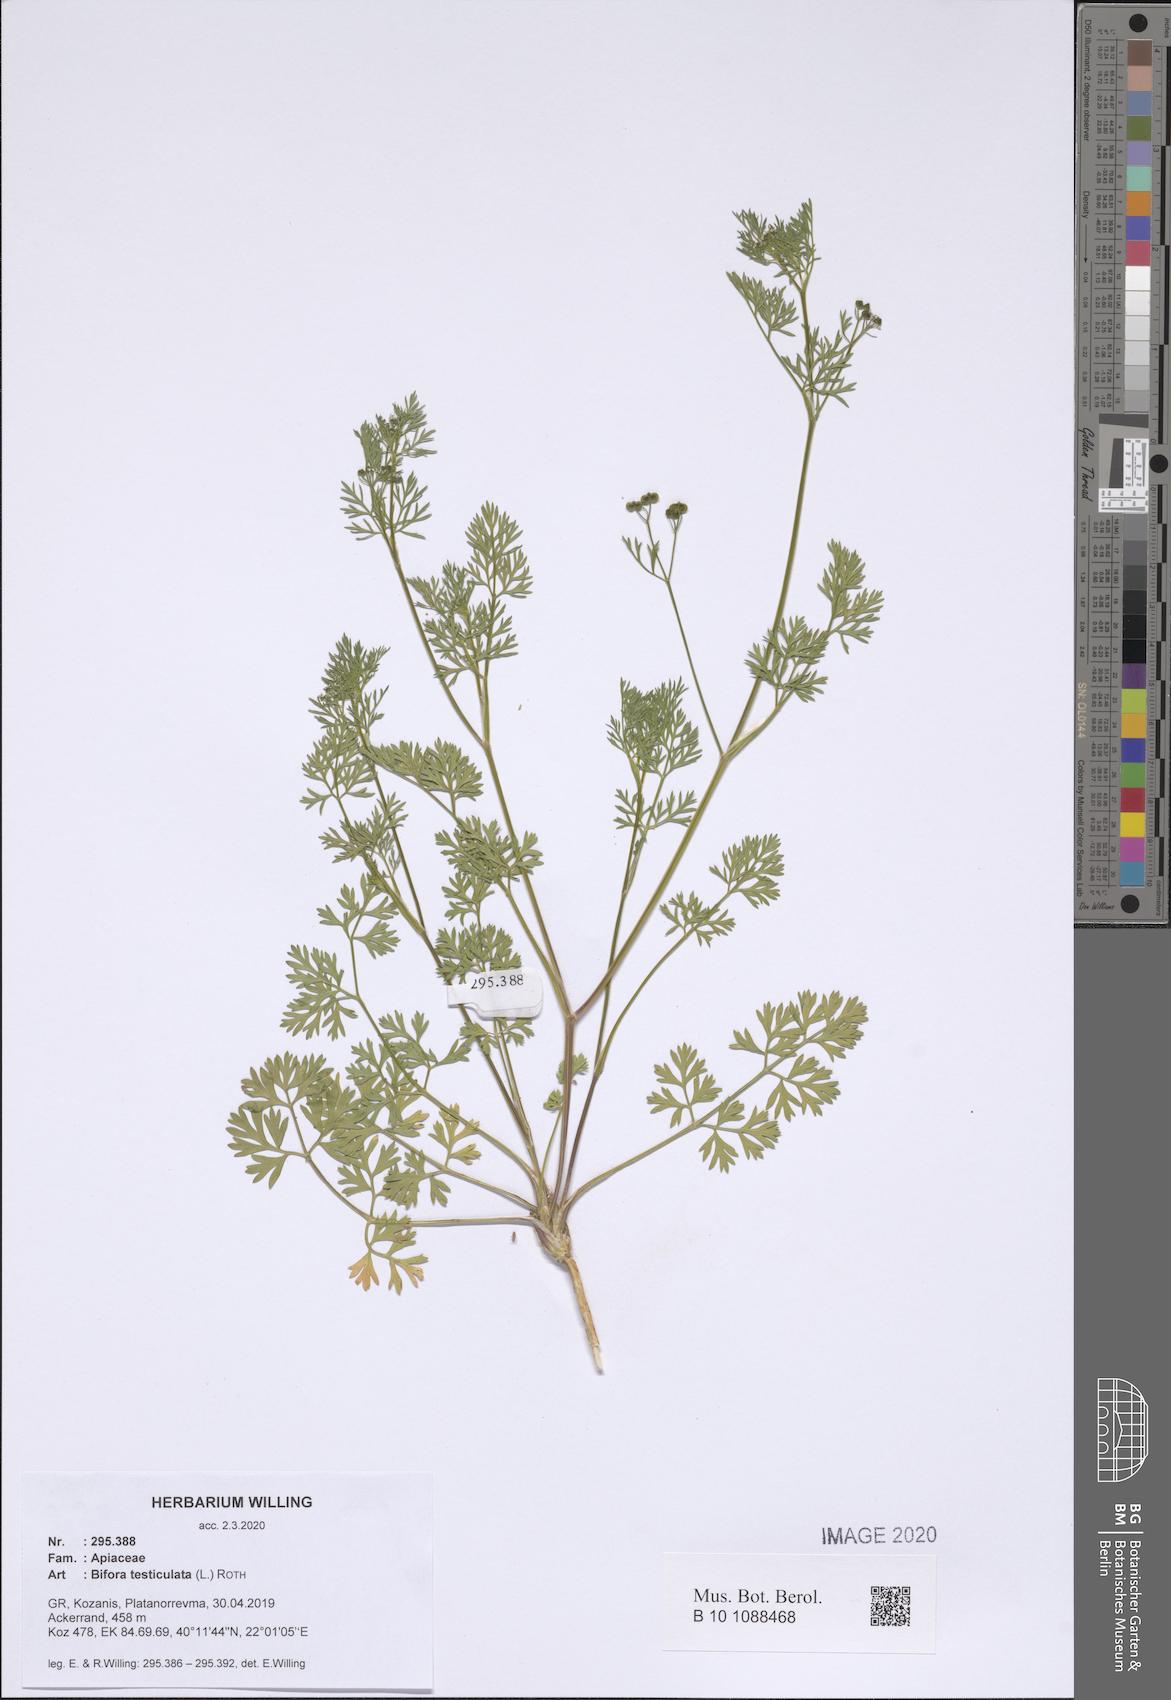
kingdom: Plantae
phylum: Tracheophyta
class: Magnoliopsida
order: Apiales
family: Apiaceae
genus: Bifora
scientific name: Bifora testiculata
